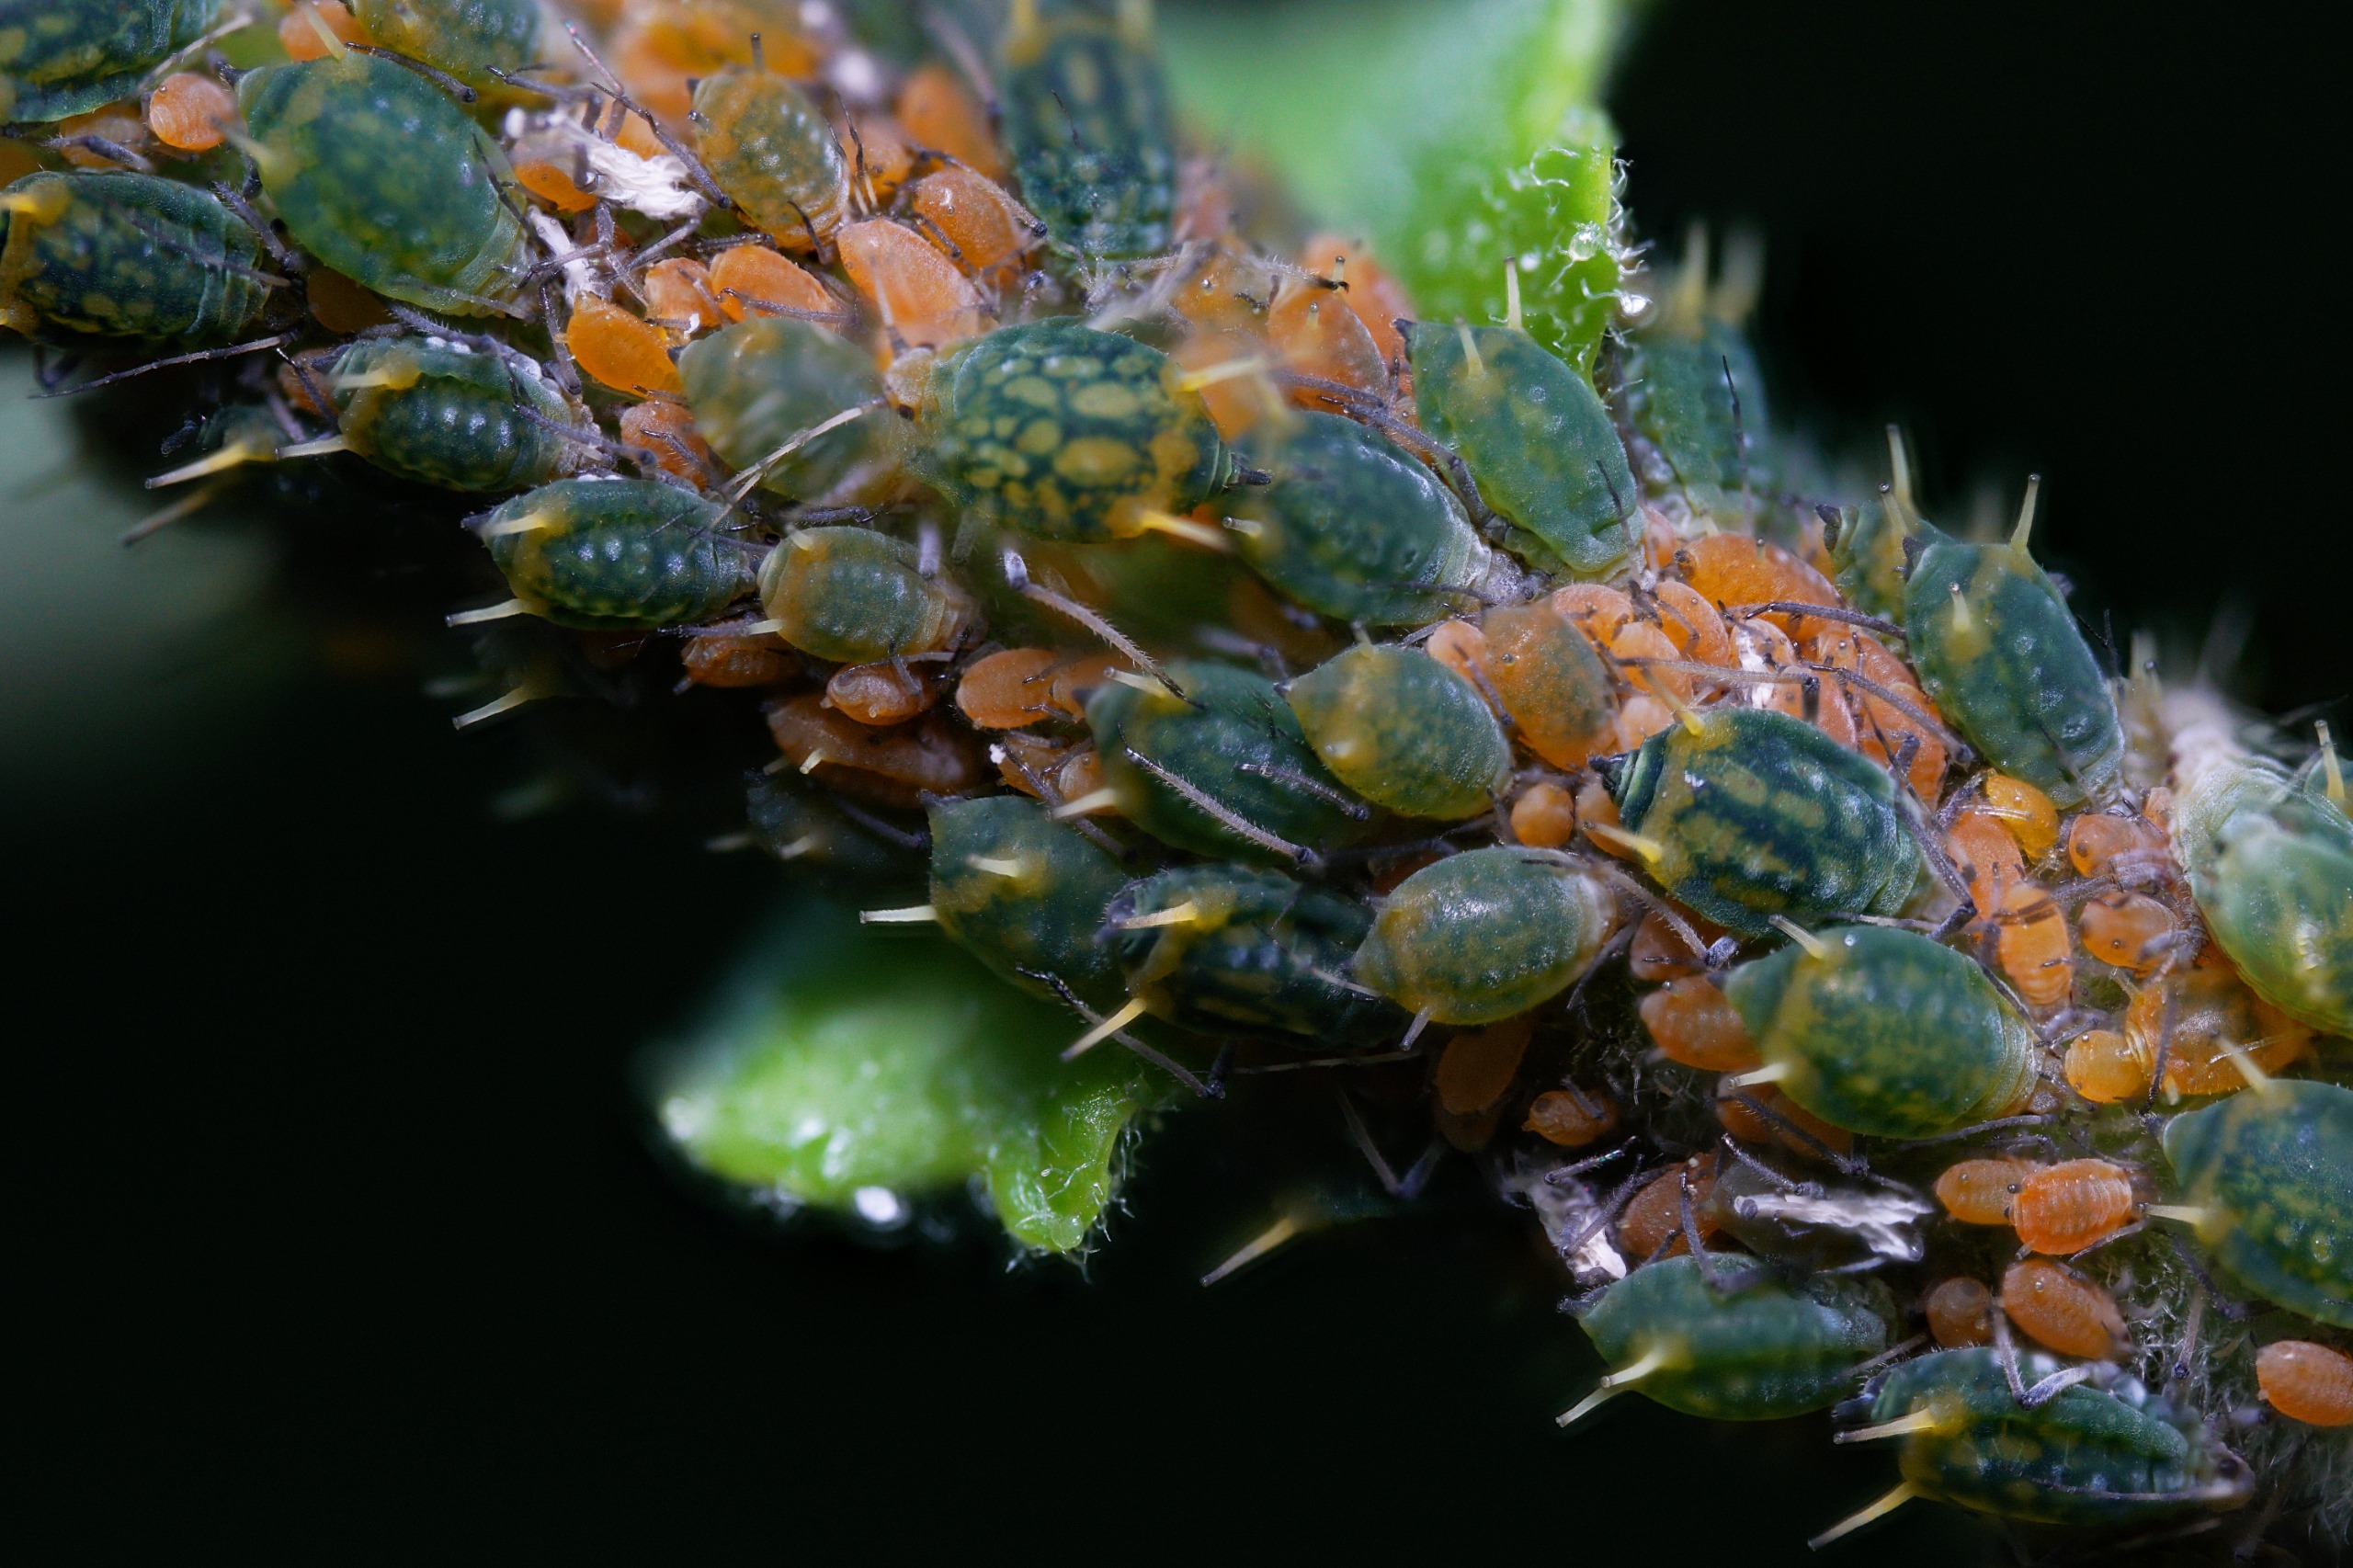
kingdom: Animalia
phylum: Arthropoda
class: Insecta
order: Hemiptera
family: Aphididae
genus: Aphis
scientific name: Aphis farinosa
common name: Pileskudbladlus
